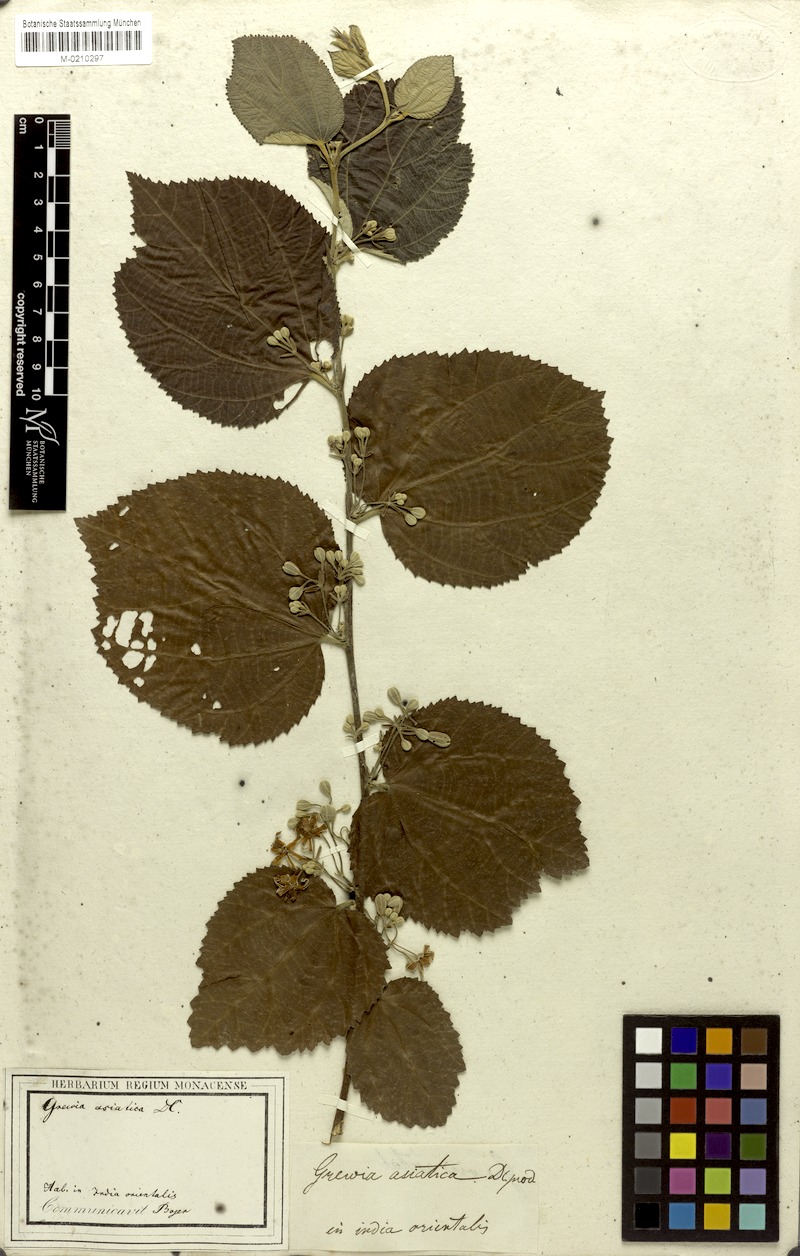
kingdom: Plantae
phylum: Tracheophyta
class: Magnoliopsida
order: Malvales
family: Malvaceae
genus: Grewia
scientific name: Grewia asiatica
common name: Phalsa
